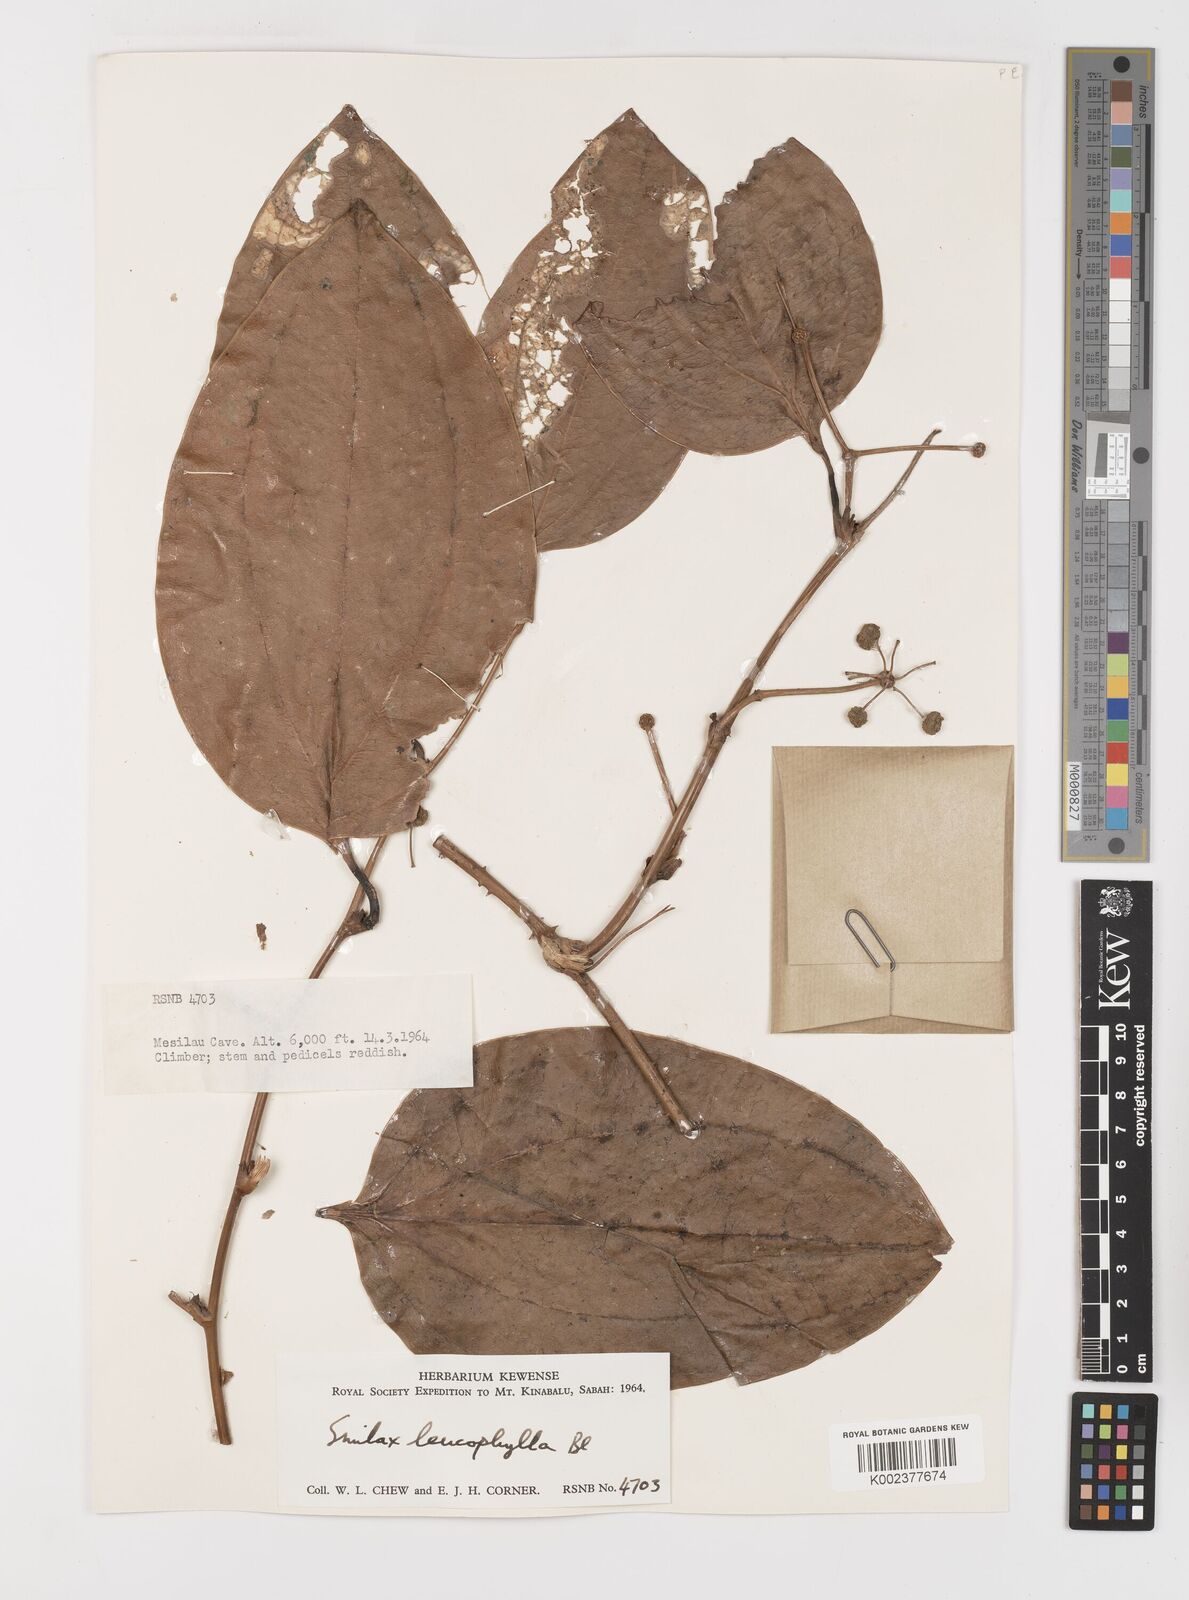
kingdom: Plantae
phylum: Tracheophyta
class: Liliopsida
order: Liliales
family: Smilacaceae
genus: Smilax
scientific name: Smilax leucophylla
